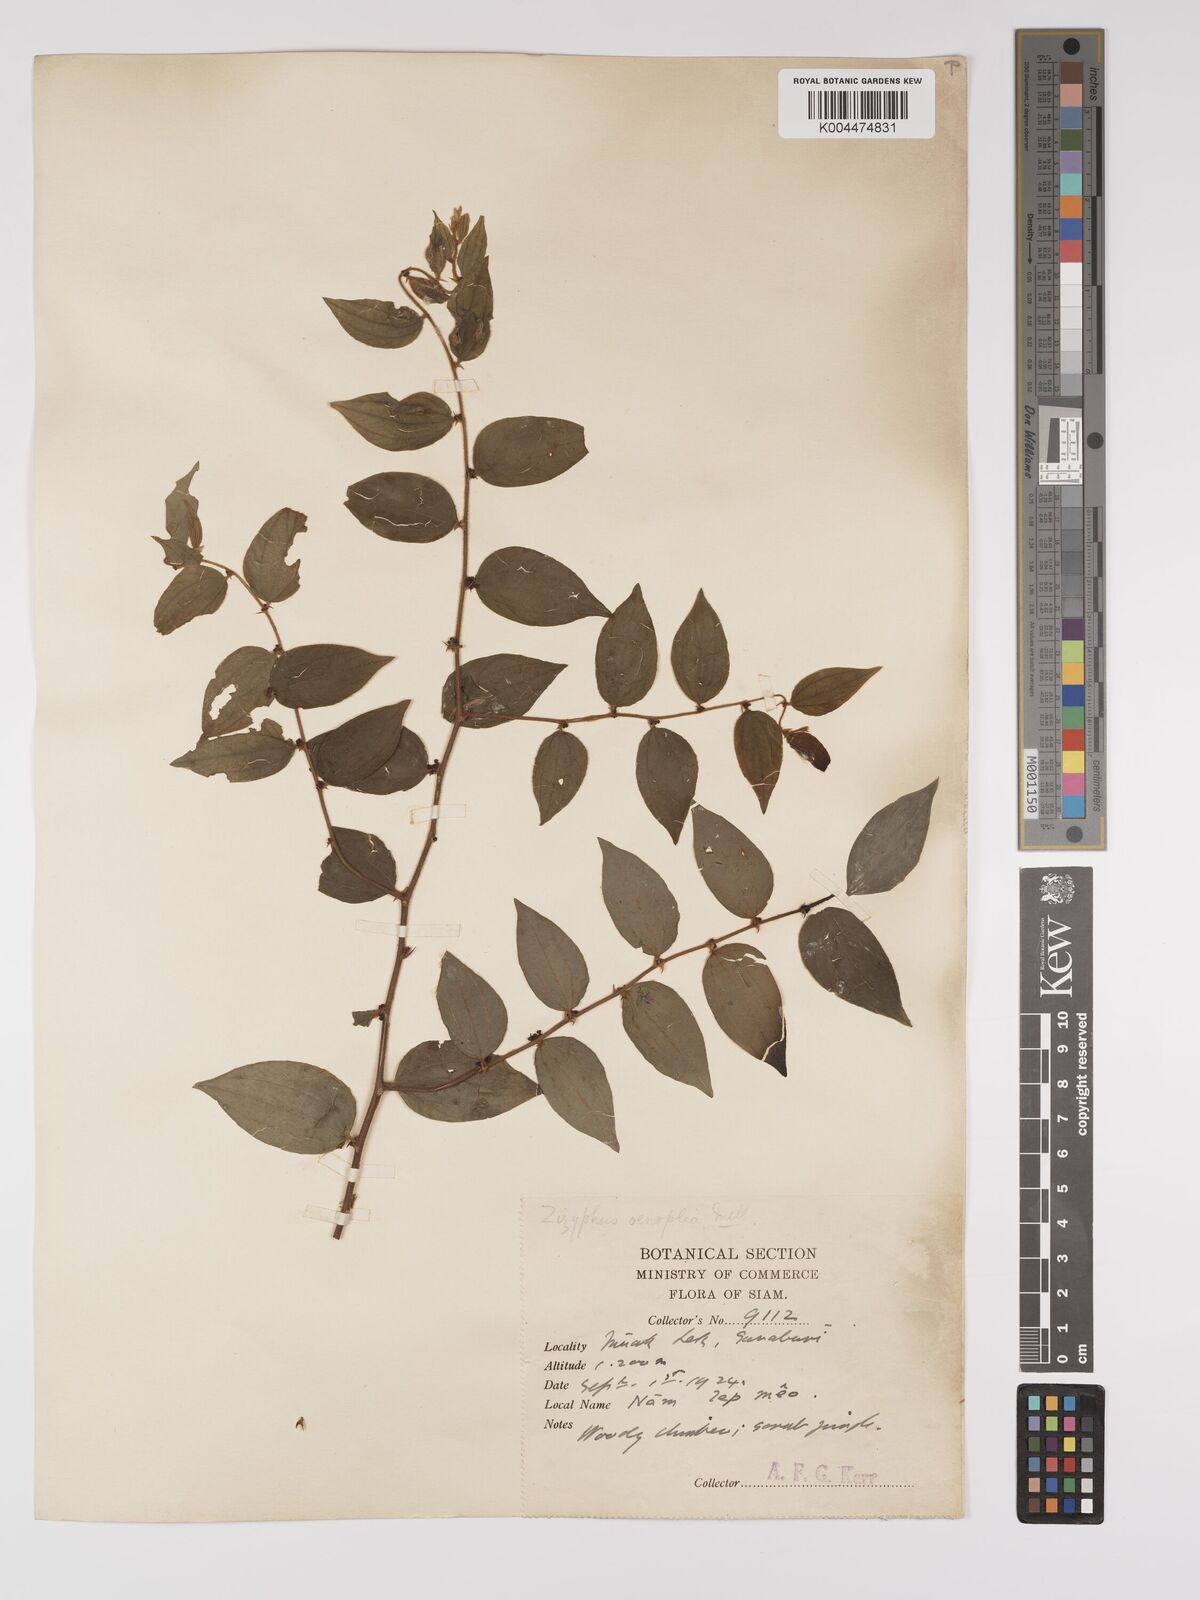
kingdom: Plantae
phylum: Tracheophyta
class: Magnoliopsida
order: Rosales
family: Rhamnaceae
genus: Ziziphus
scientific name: Ziziphus oenopolia
